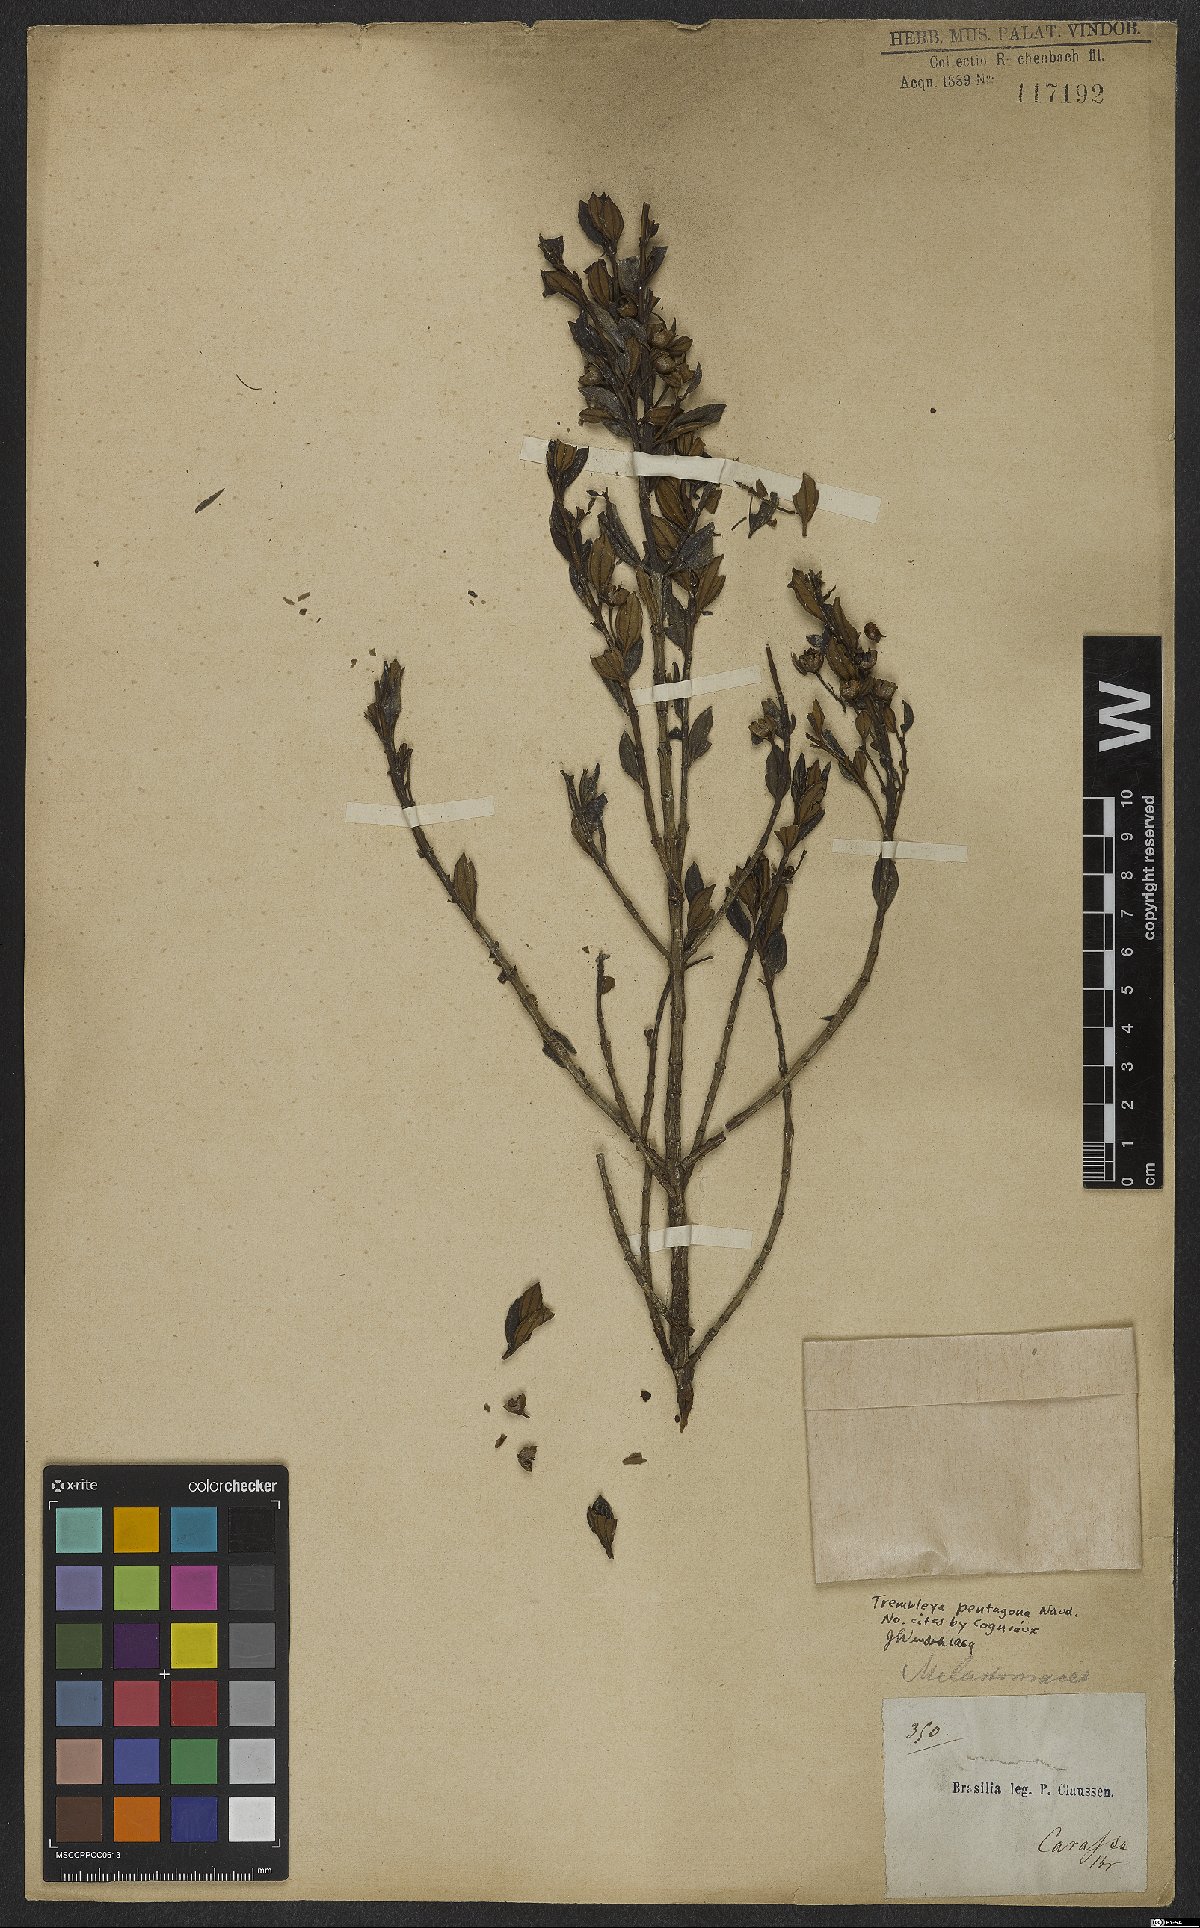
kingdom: Plantae
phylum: Tracheophyta
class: Magnoliopsida
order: Myrtales
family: Melastomataceae
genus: Microlicia
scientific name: Microlicia pentagona
